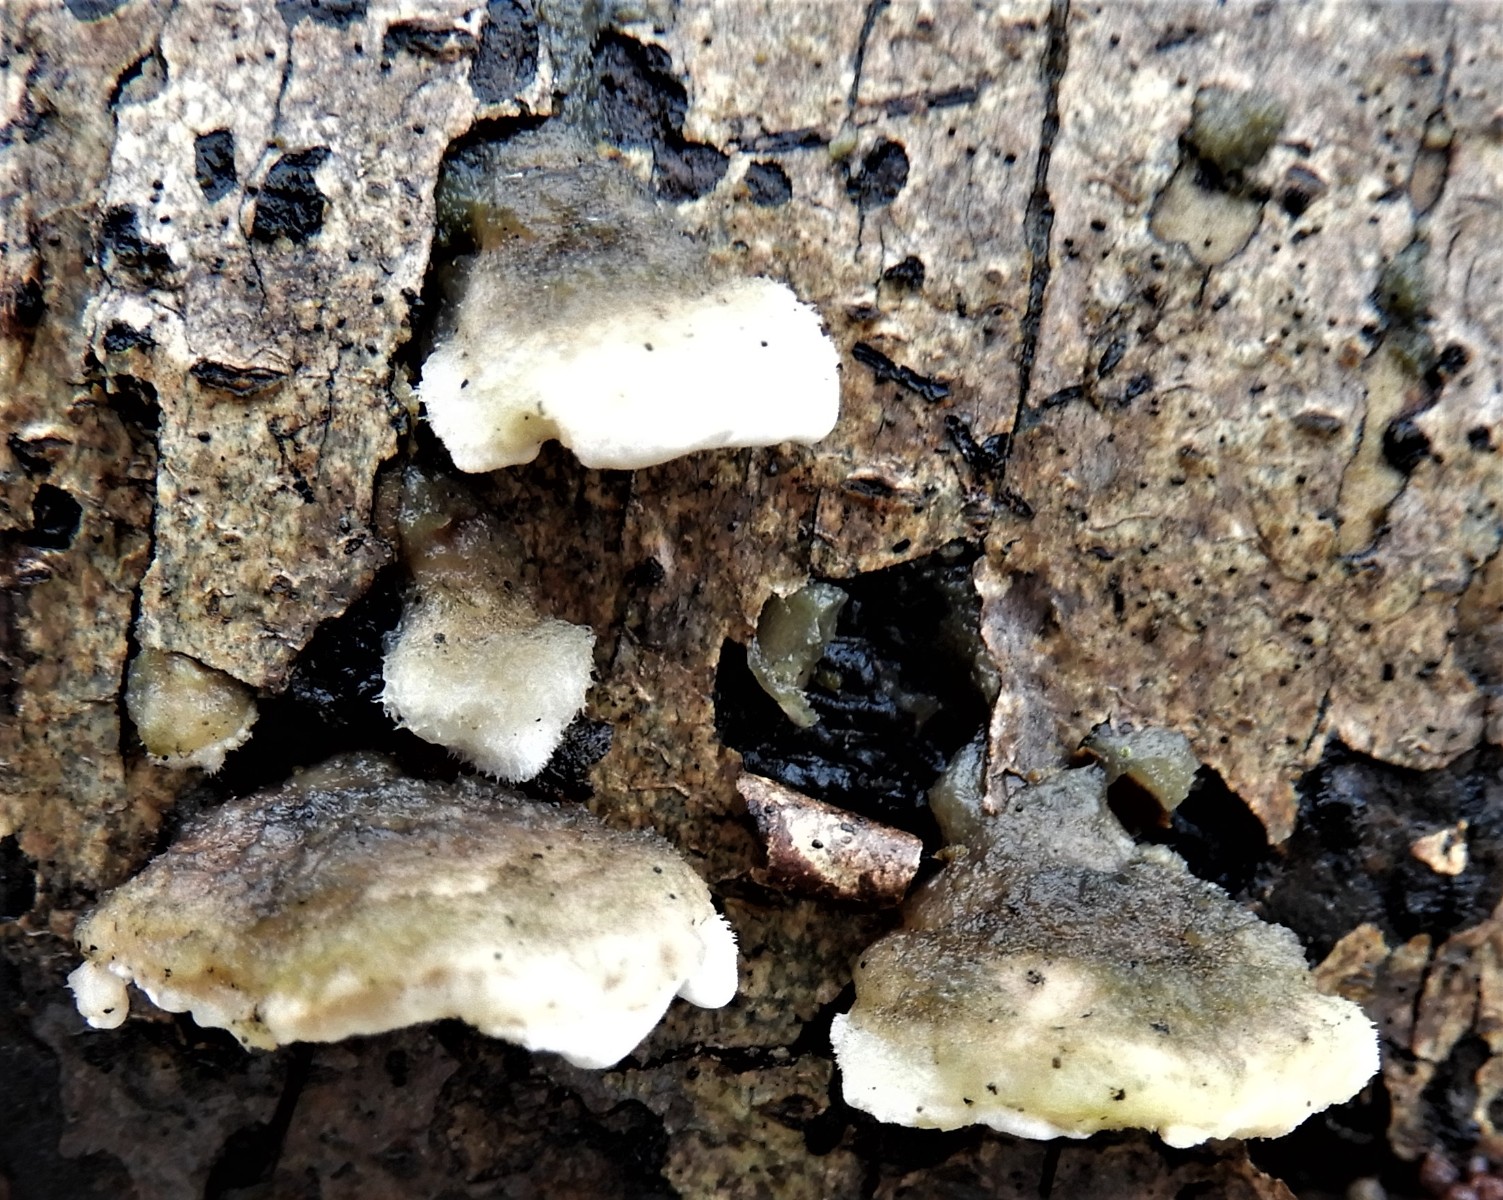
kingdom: Fungi
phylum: Basidiomycota
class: Agaricomycetes
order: Polyporales
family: Steccherinaceae
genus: Steccherinum
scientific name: Steccherinum
